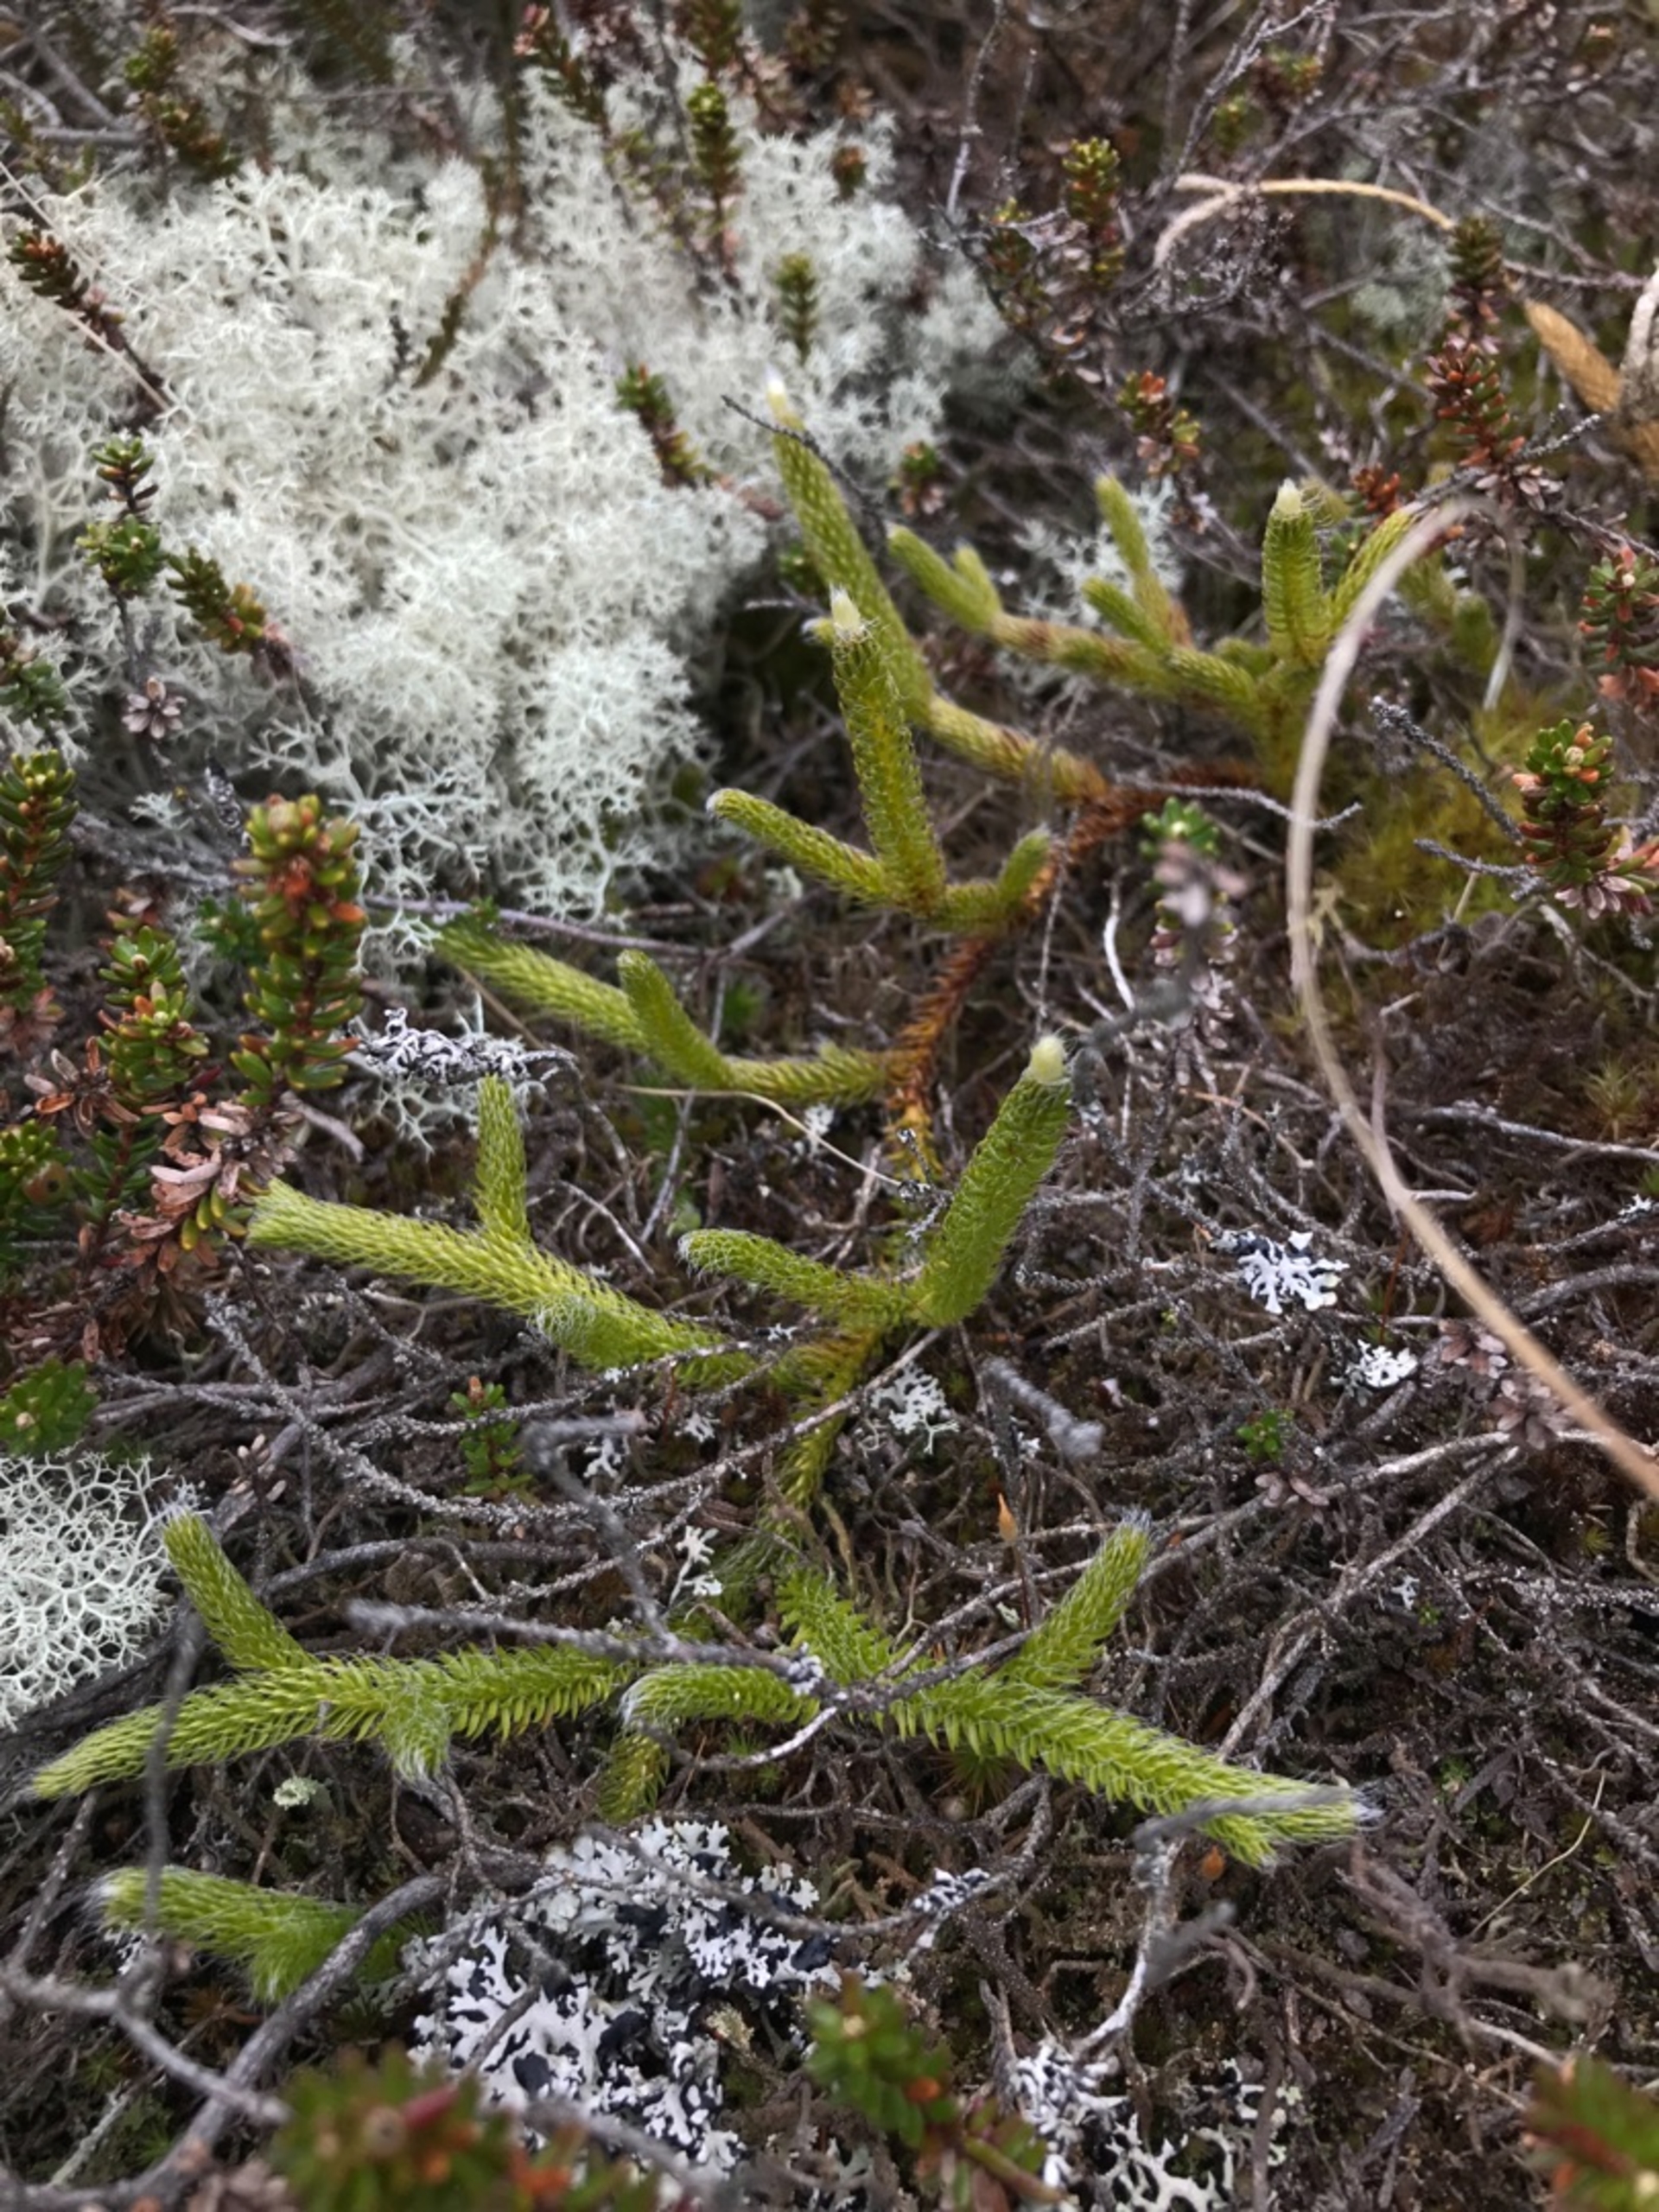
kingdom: Plantae
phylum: Tracheophyta
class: Lycopodiopsida
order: Lycopodiales
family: Lycopodiaceae
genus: Lycopodium
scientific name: Lycopodium clavatum
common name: Almindelig ulvefod
